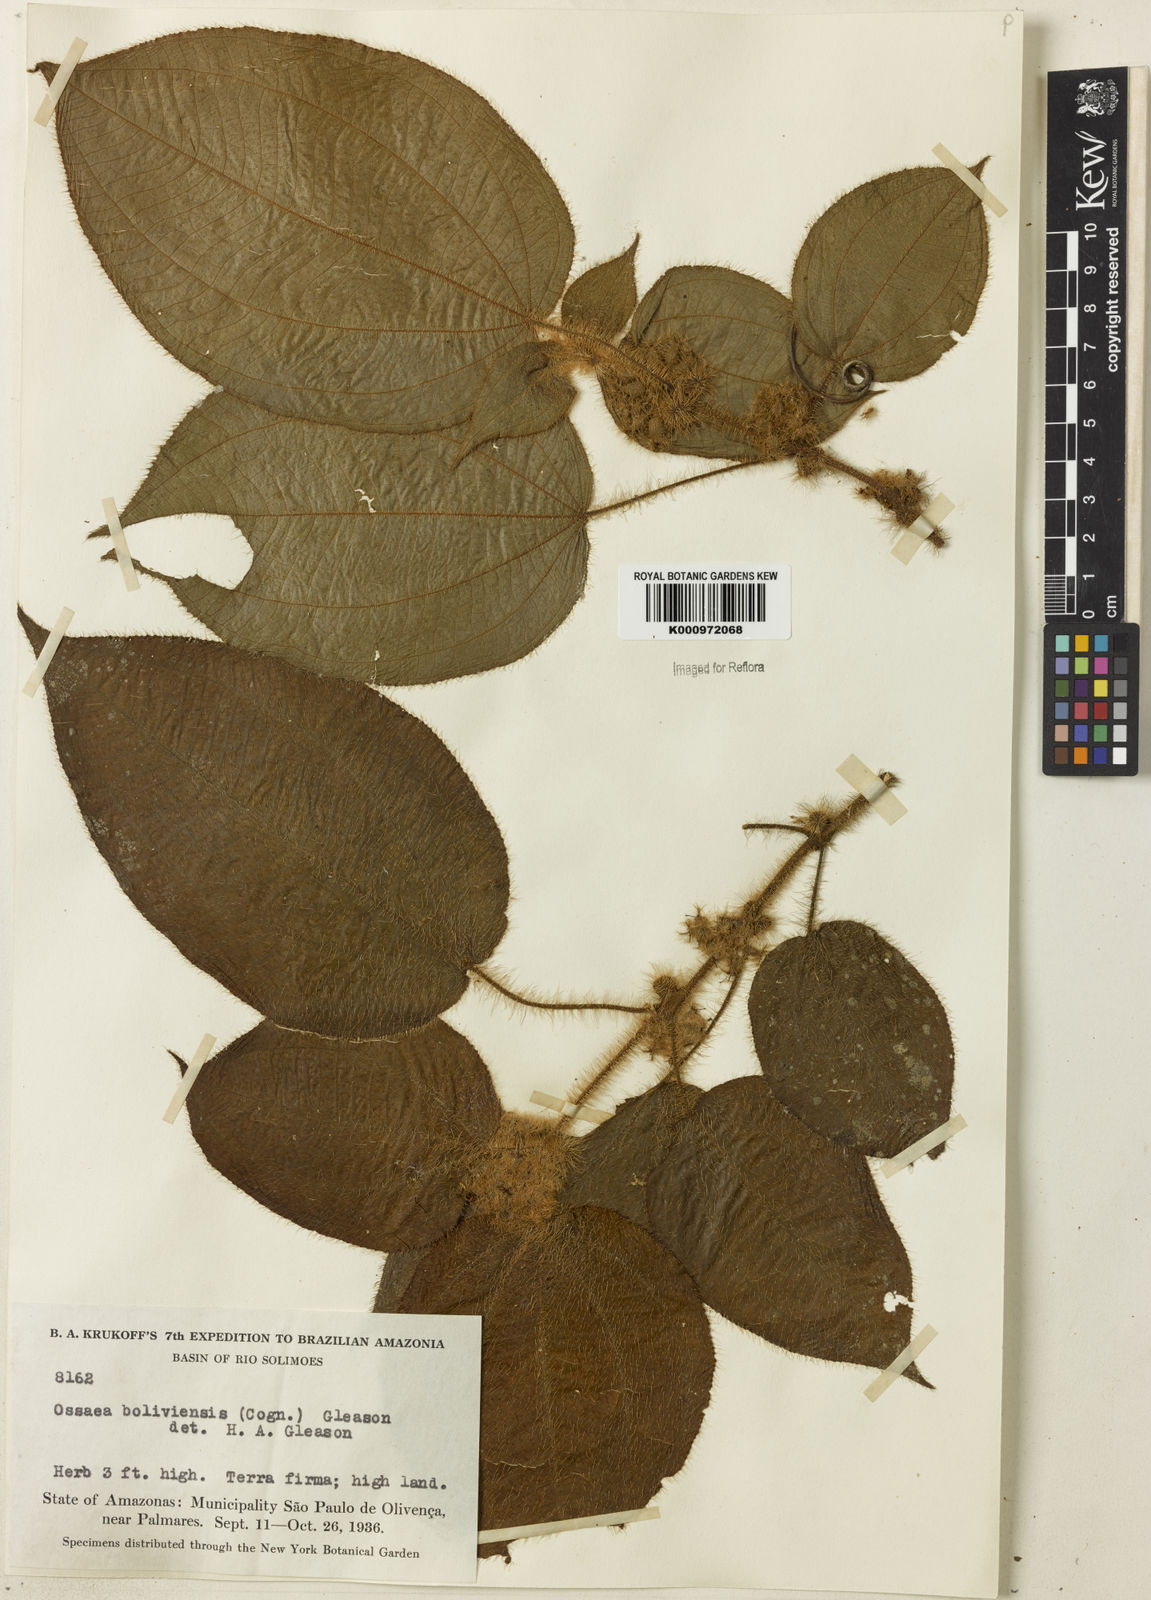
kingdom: Plantae
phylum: Tracheophyta
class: Magnoliopsida
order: Myrtales
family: Melastomataceae
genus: Miconia
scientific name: Miconia violascens
